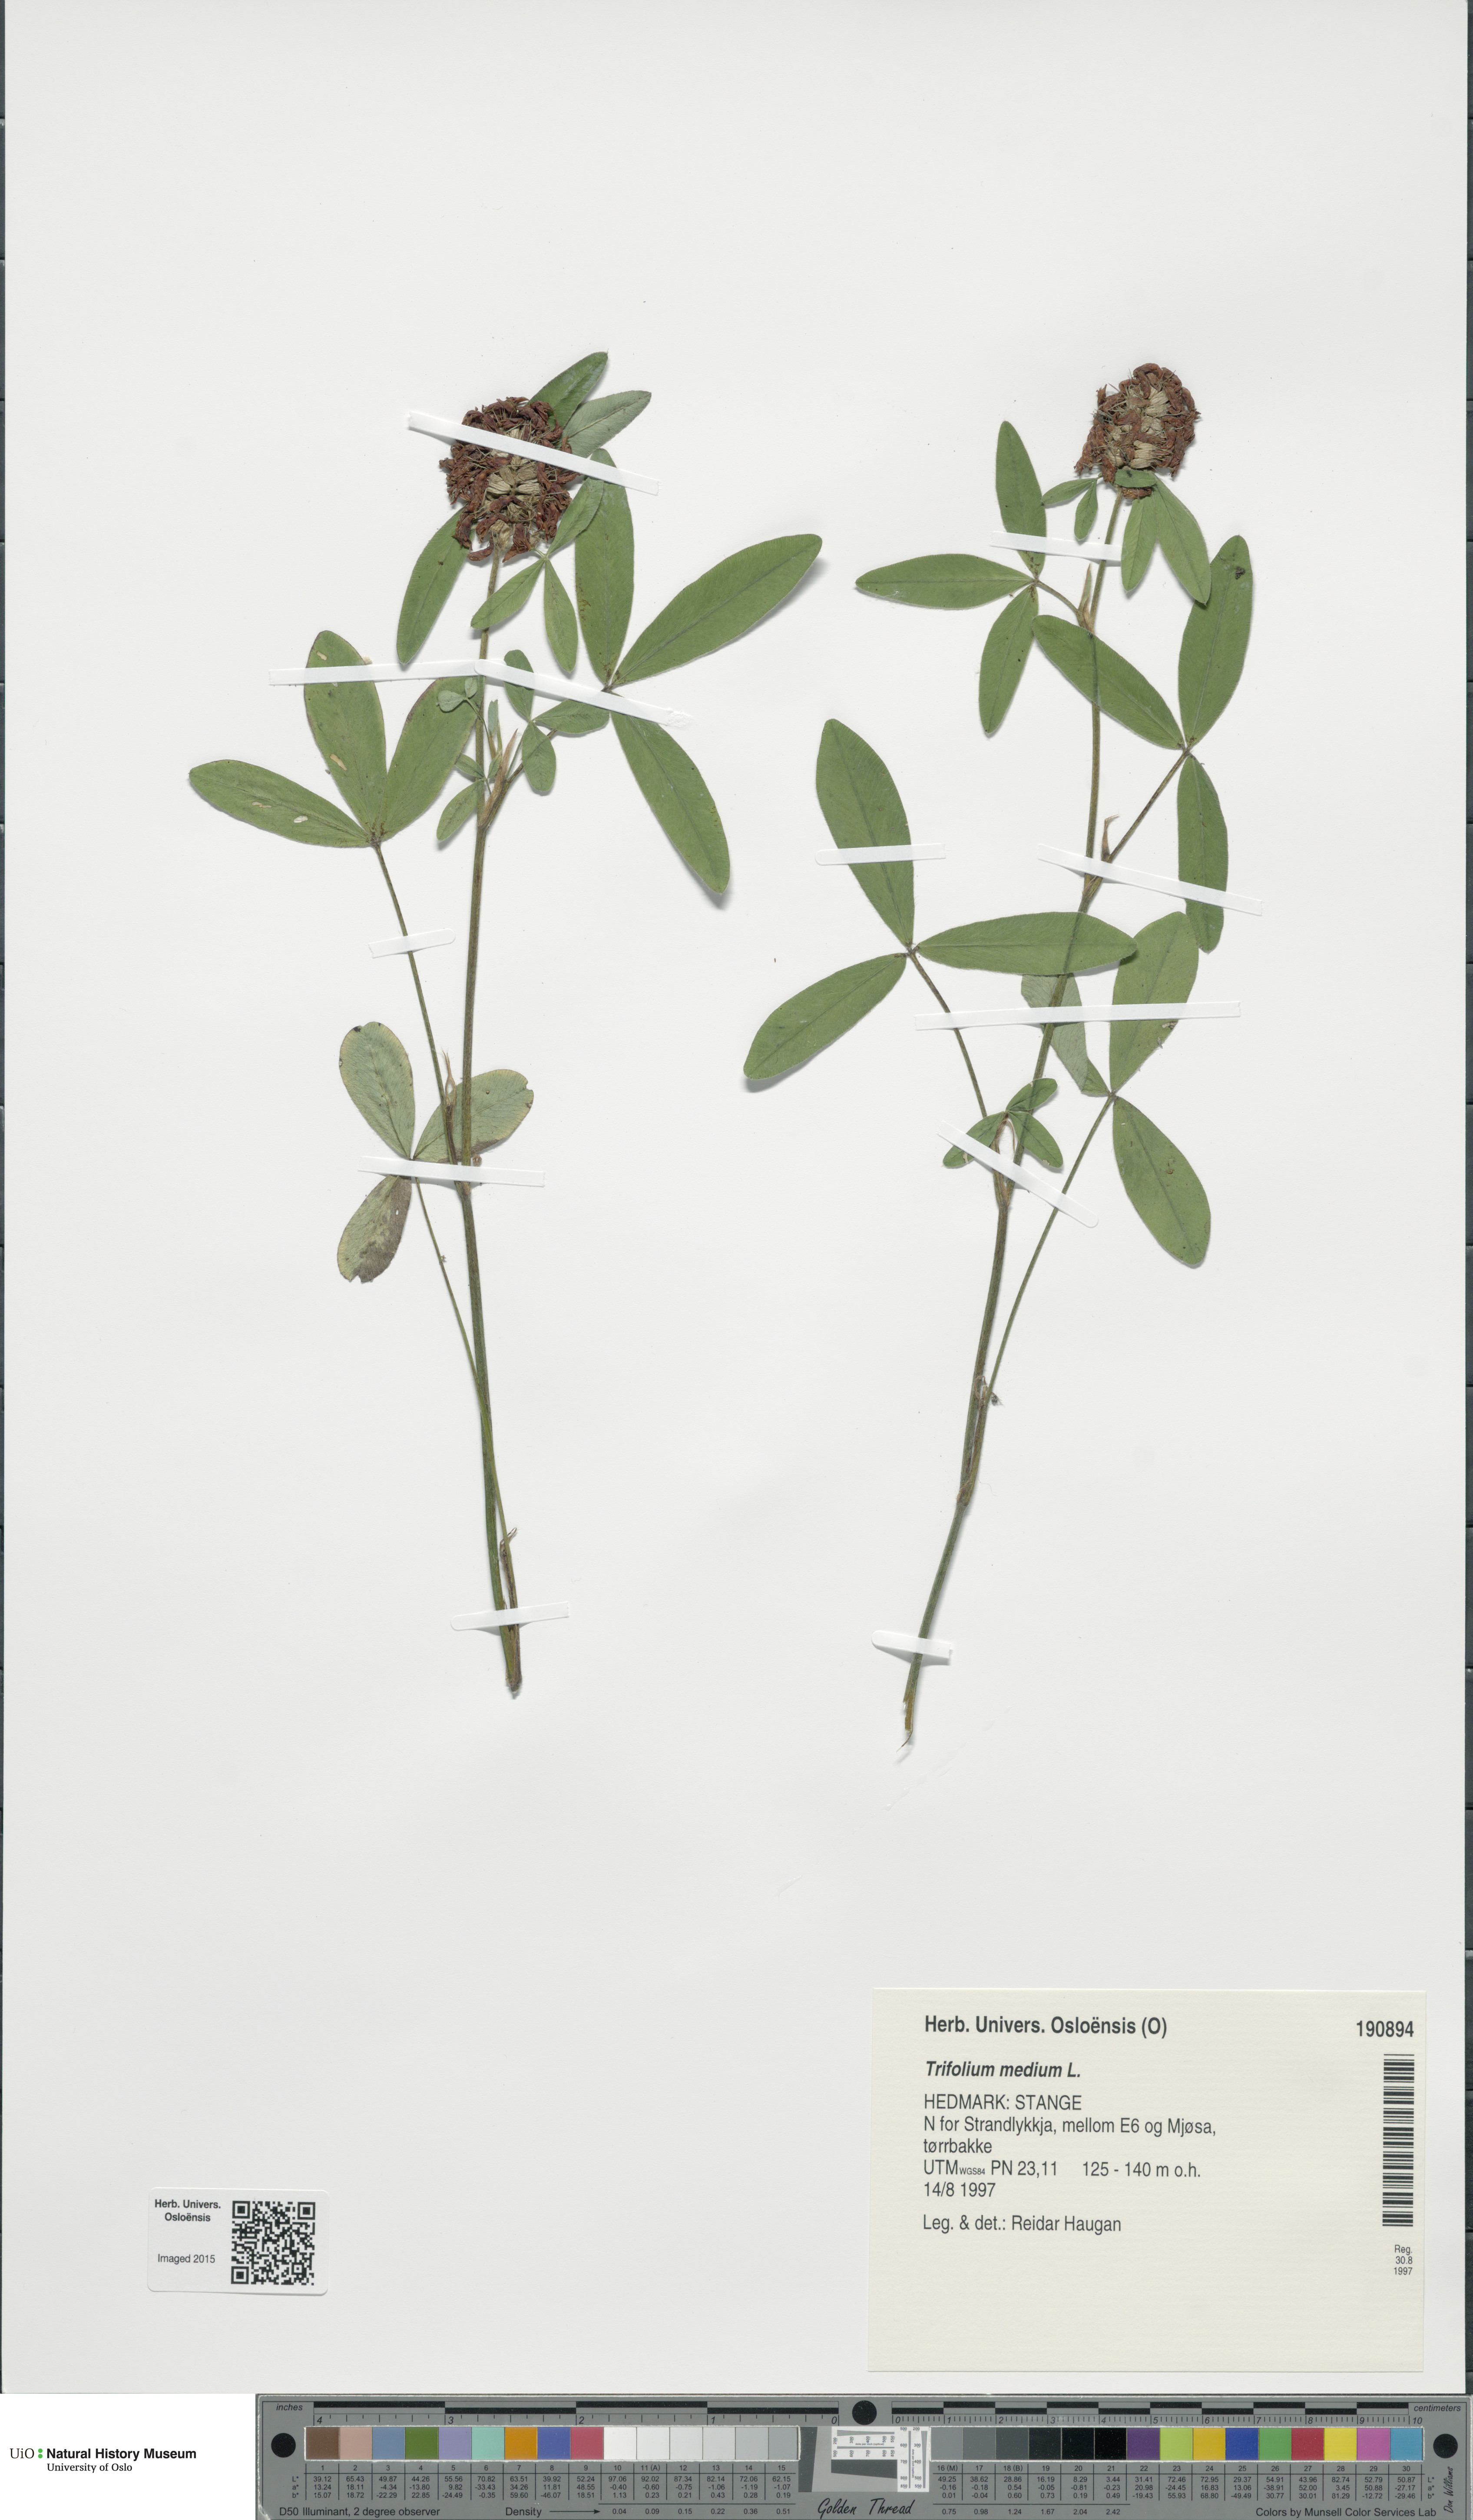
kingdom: Plantae
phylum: Tracheophyta
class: Magnoliopsida
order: Fabales
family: Fabaceae
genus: Trifolium
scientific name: Trifolium medium
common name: Zigzag clover
